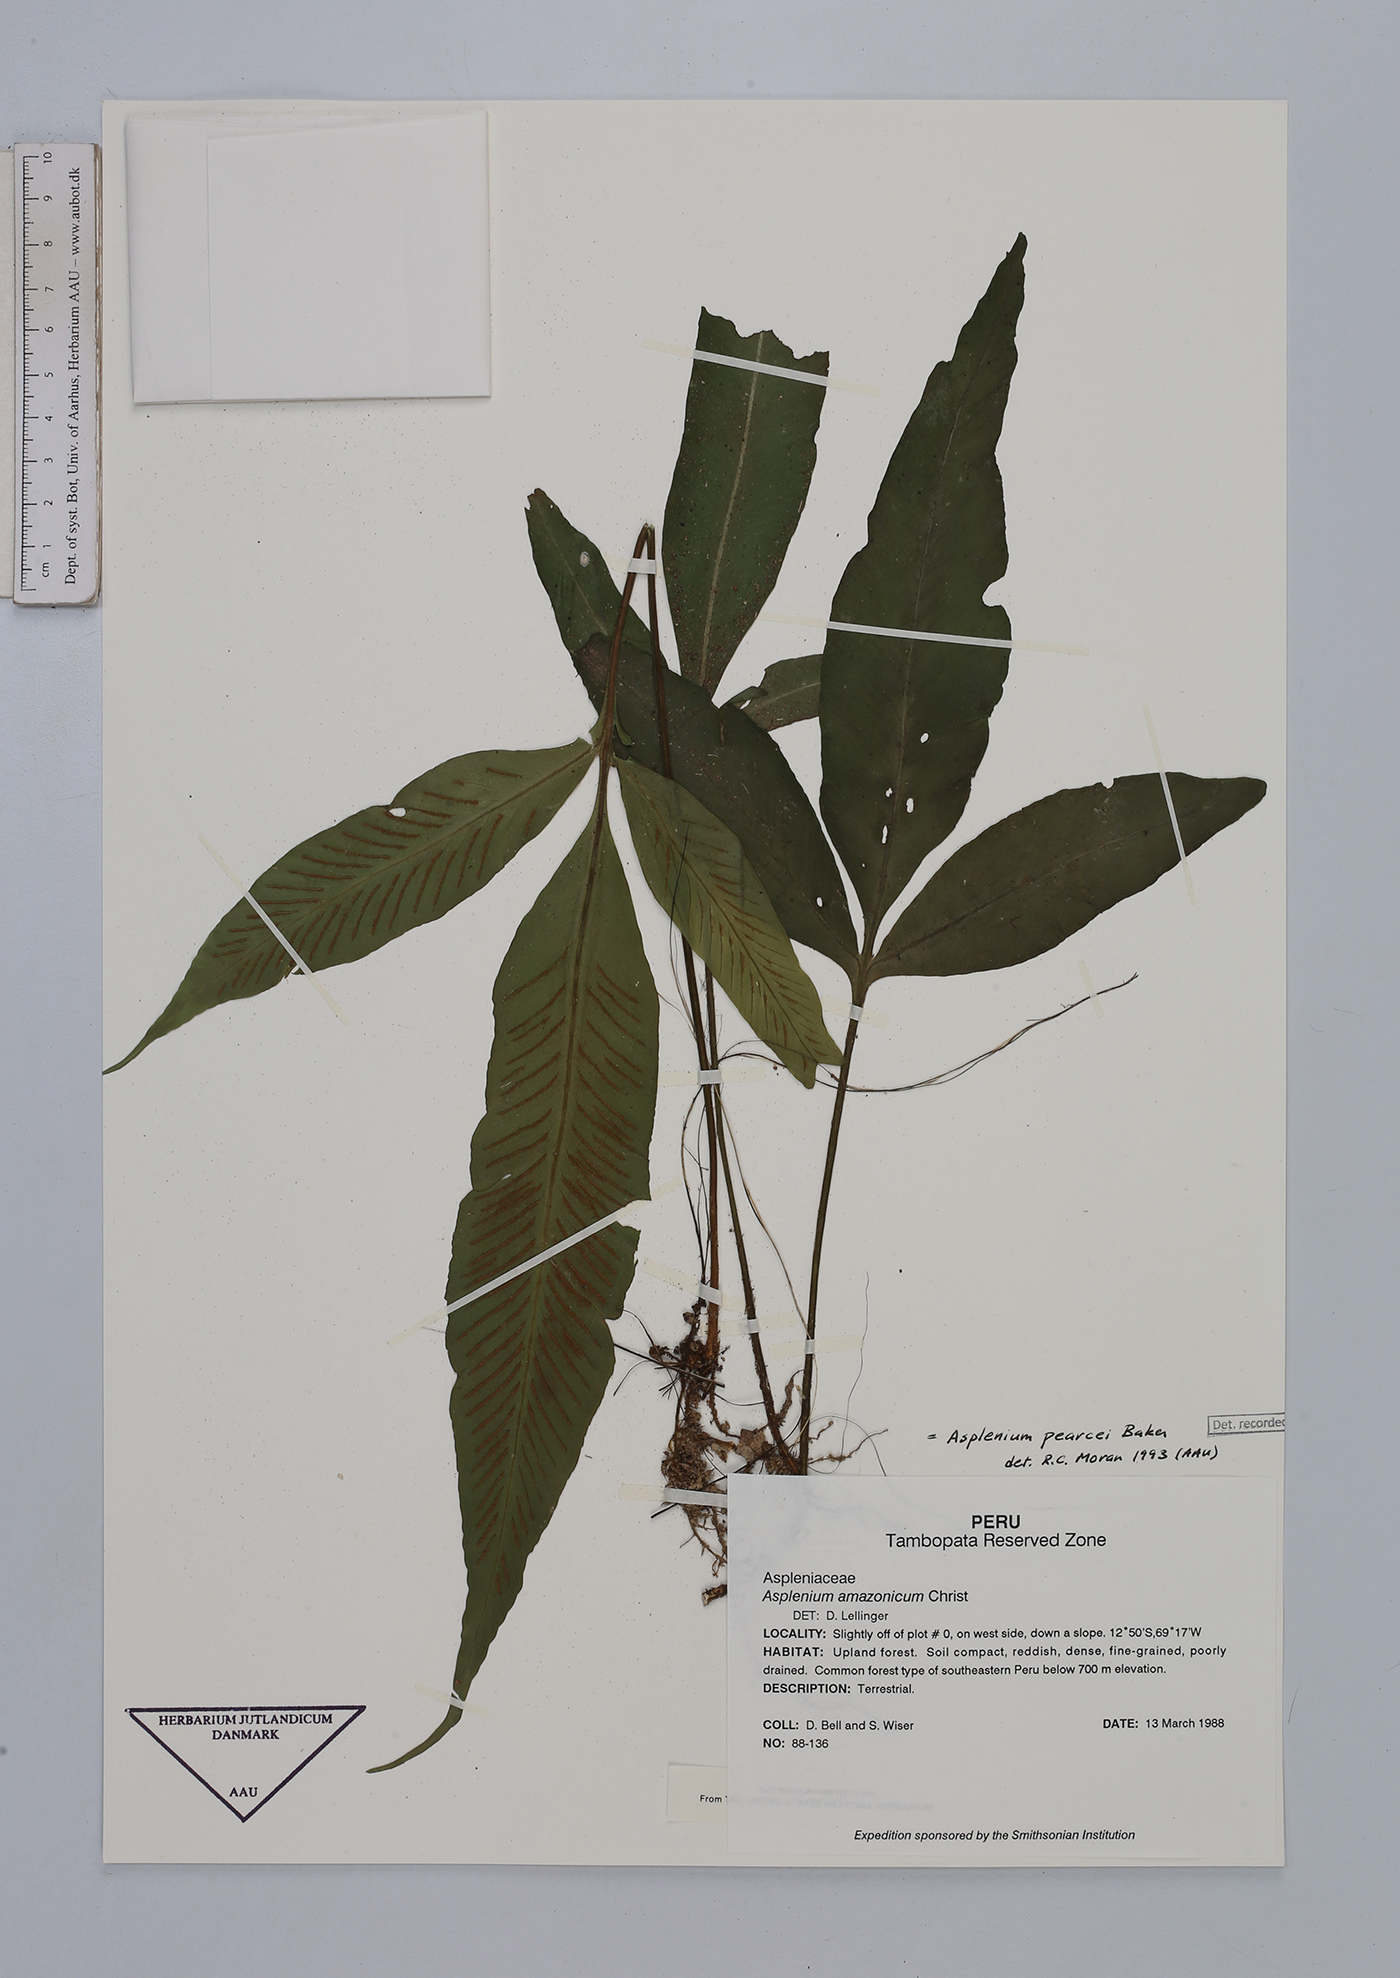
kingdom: Plantae
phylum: Tracheophyta
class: Polypodiopsida
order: Polypodiales
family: Aspleniaceae
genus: Asplenium
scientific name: Asplenium pearcei
